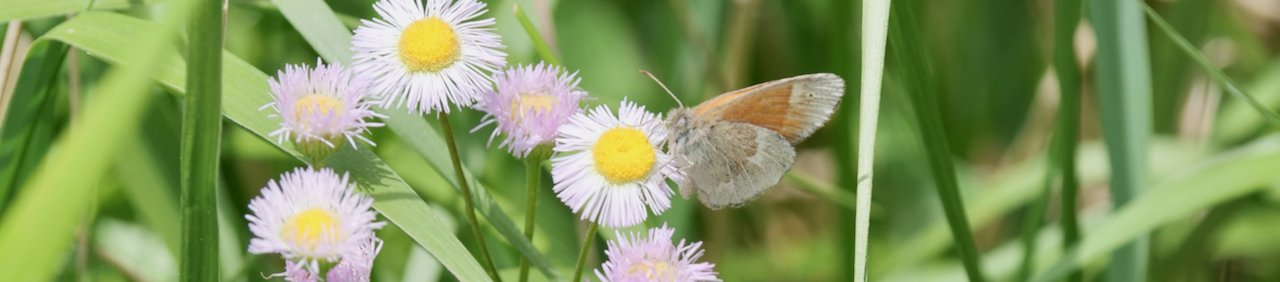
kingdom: Animalia
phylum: Arthropoda
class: Insecta
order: Lepidoptera
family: Nymphalidae
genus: Coenonympha
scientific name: Coenonympha tullia
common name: Large Heath
